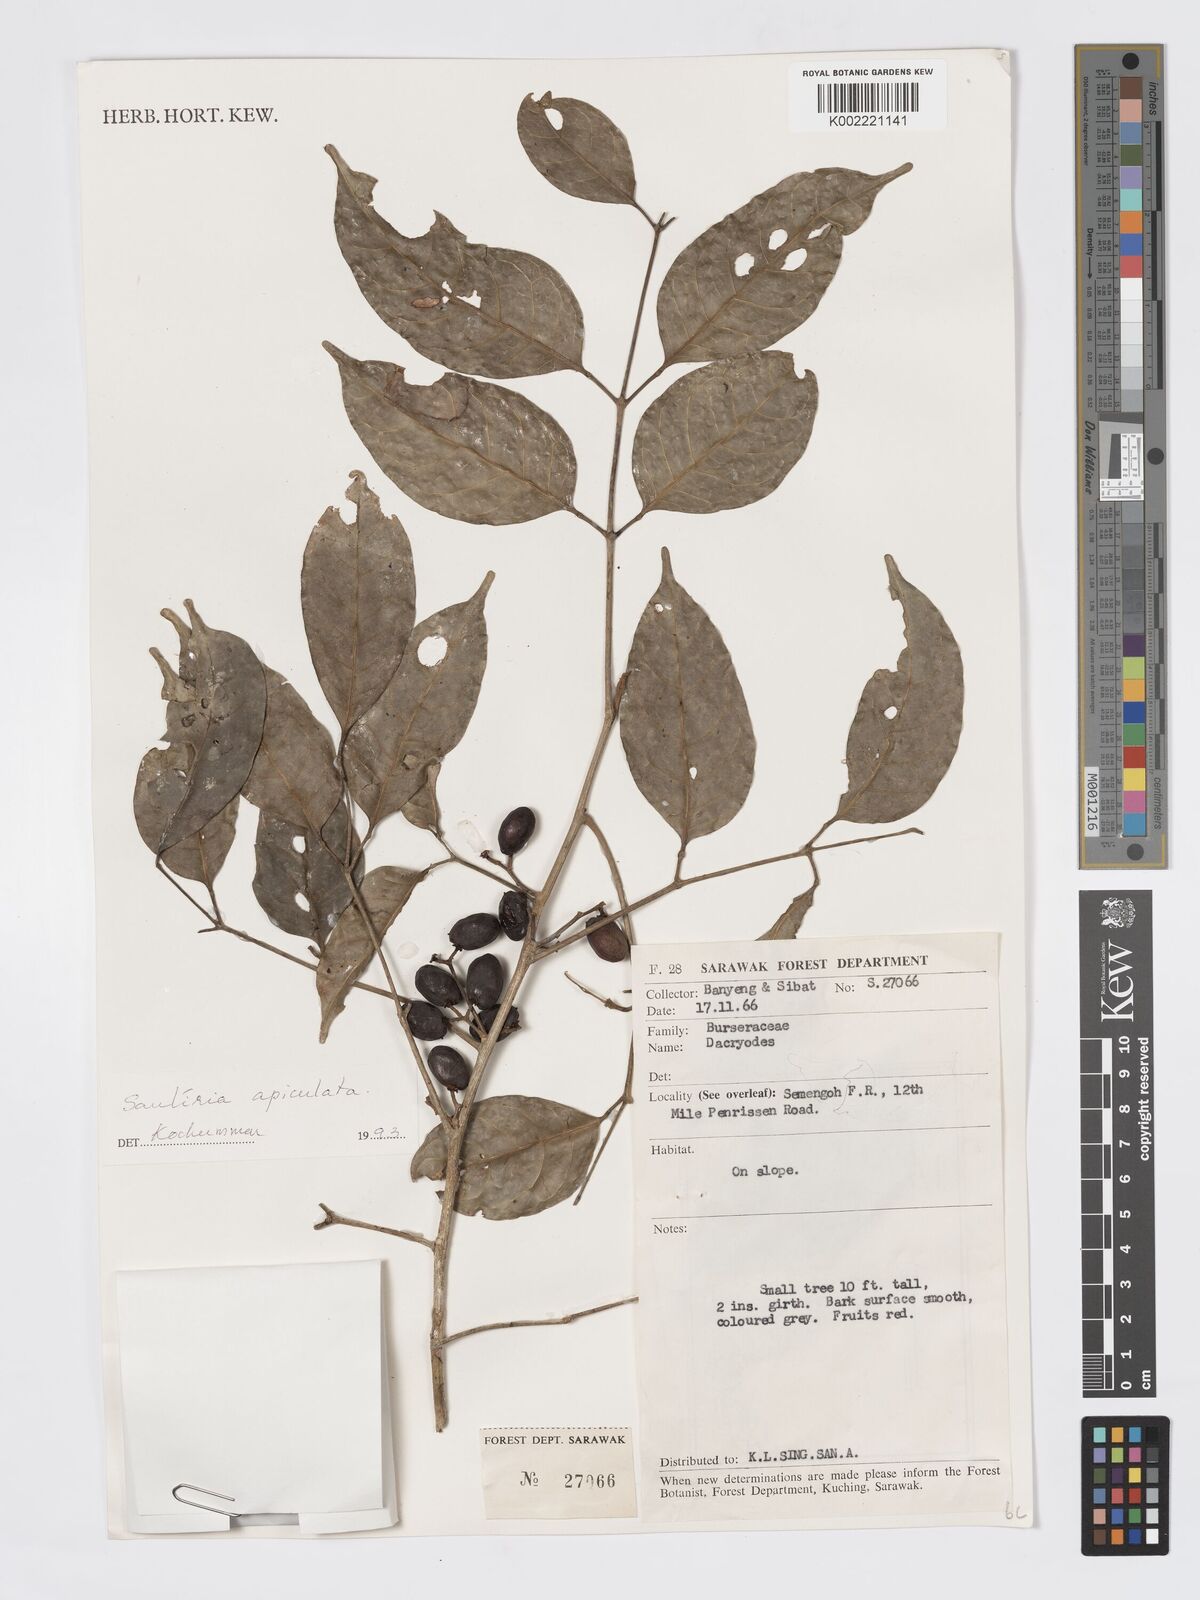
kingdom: Plantae
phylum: Tracheophyta
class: Magnoliopsida
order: Sapindales
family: Burseraceae
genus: Santiria
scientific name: Santiria apiculata
